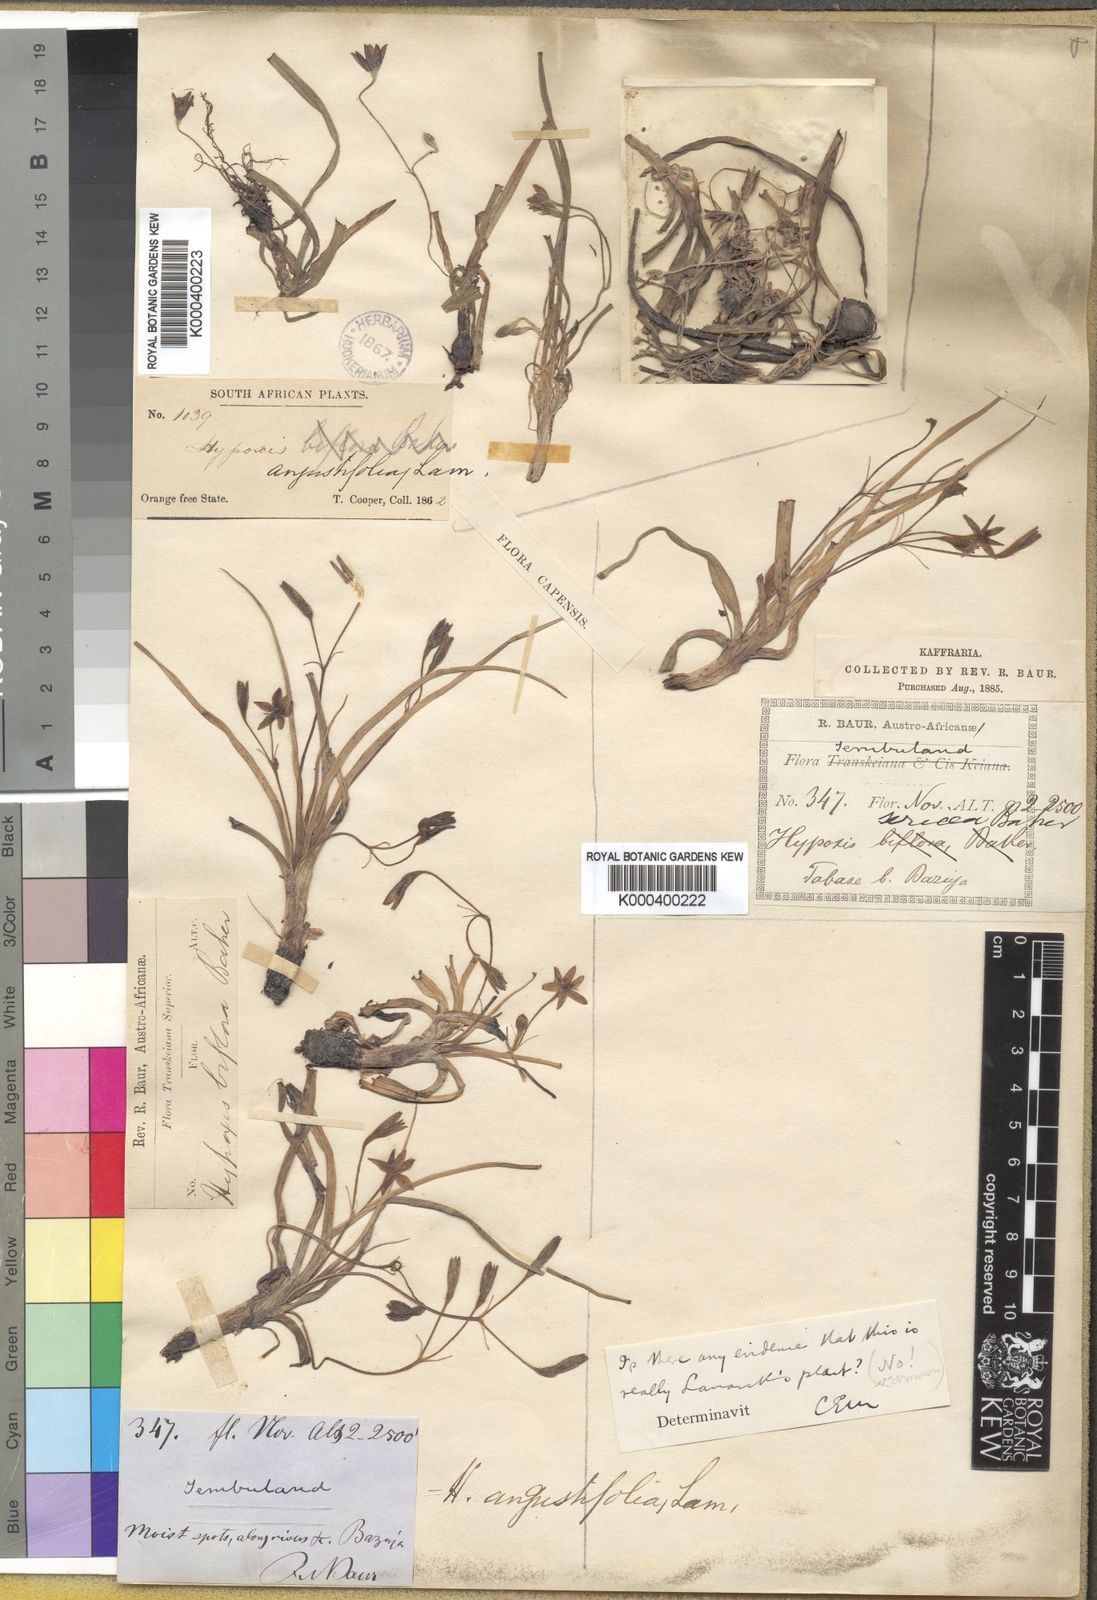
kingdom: Plantae
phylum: Tracheophyta
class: Liliopsida
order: Asparagales
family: Hypoxidaceae
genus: Hypoxis
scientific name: Hypoxis angustifolia
